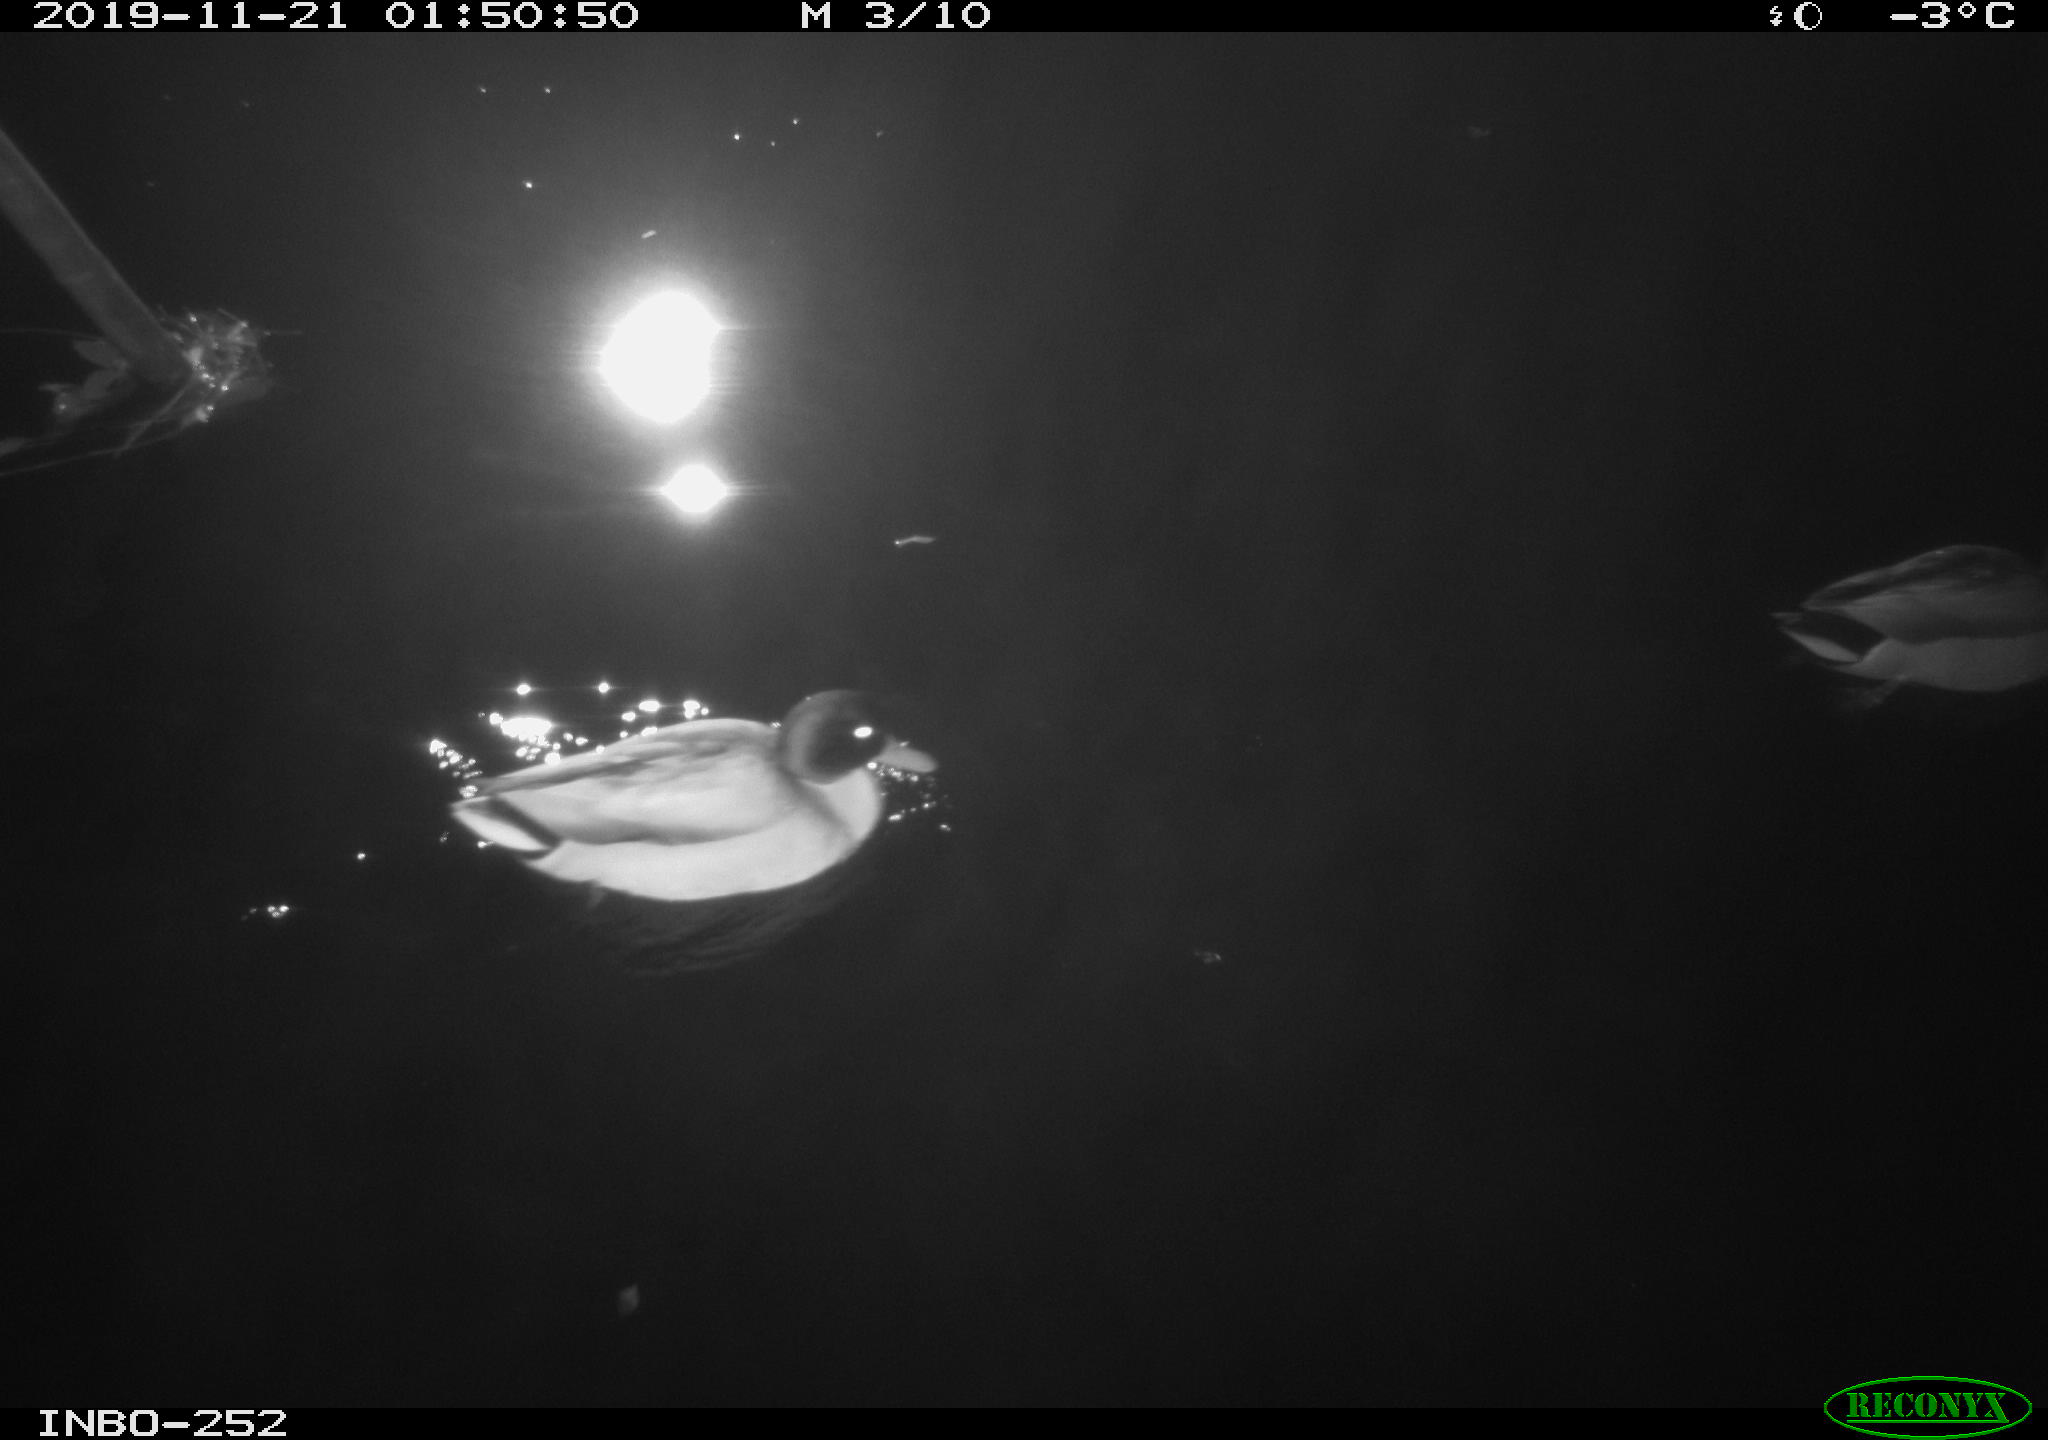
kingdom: Animalia
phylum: Chordata
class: Aves
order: Anseriformes
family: Anatidae
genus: Anas
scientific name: Anas platyrhynchos
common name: Mallard
